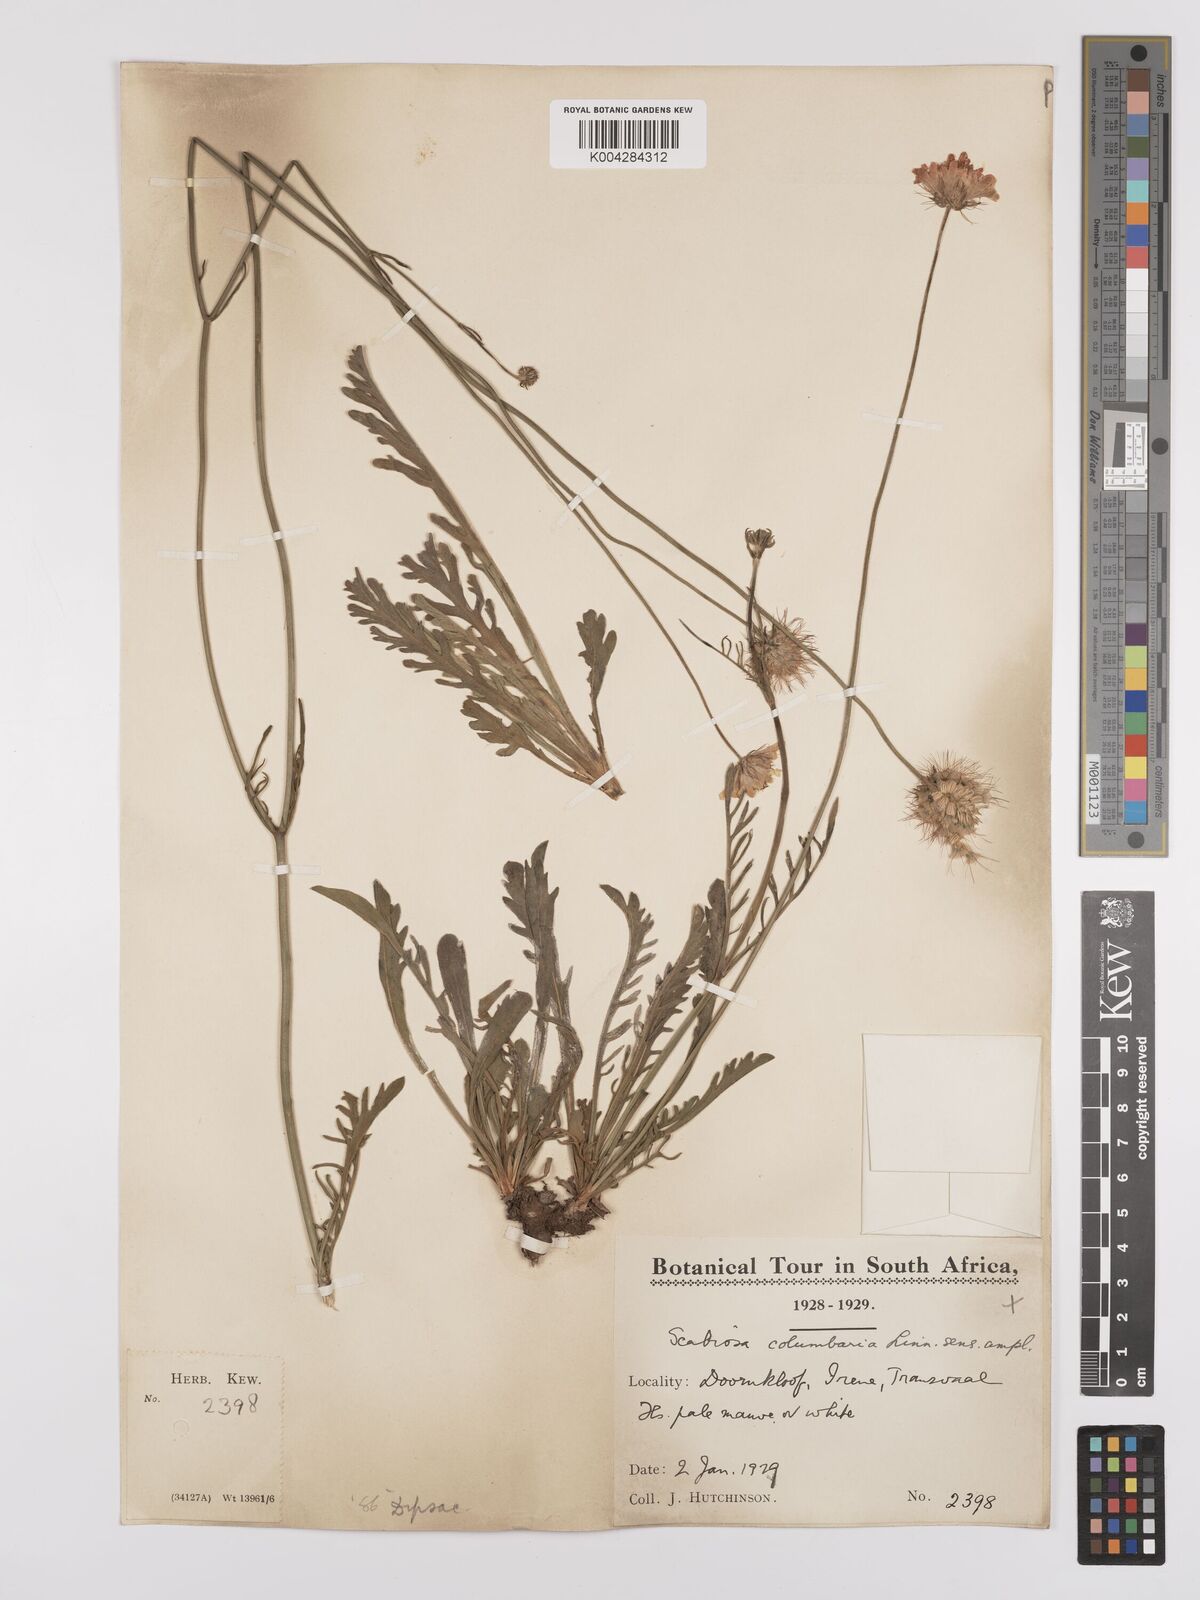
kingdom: Plantae
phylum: Tracheophyta
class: Magnoliopsida
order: Dipsacales
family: Caprifoliaceae
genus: Scabiosa
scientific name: Scabiosa austroafricana
